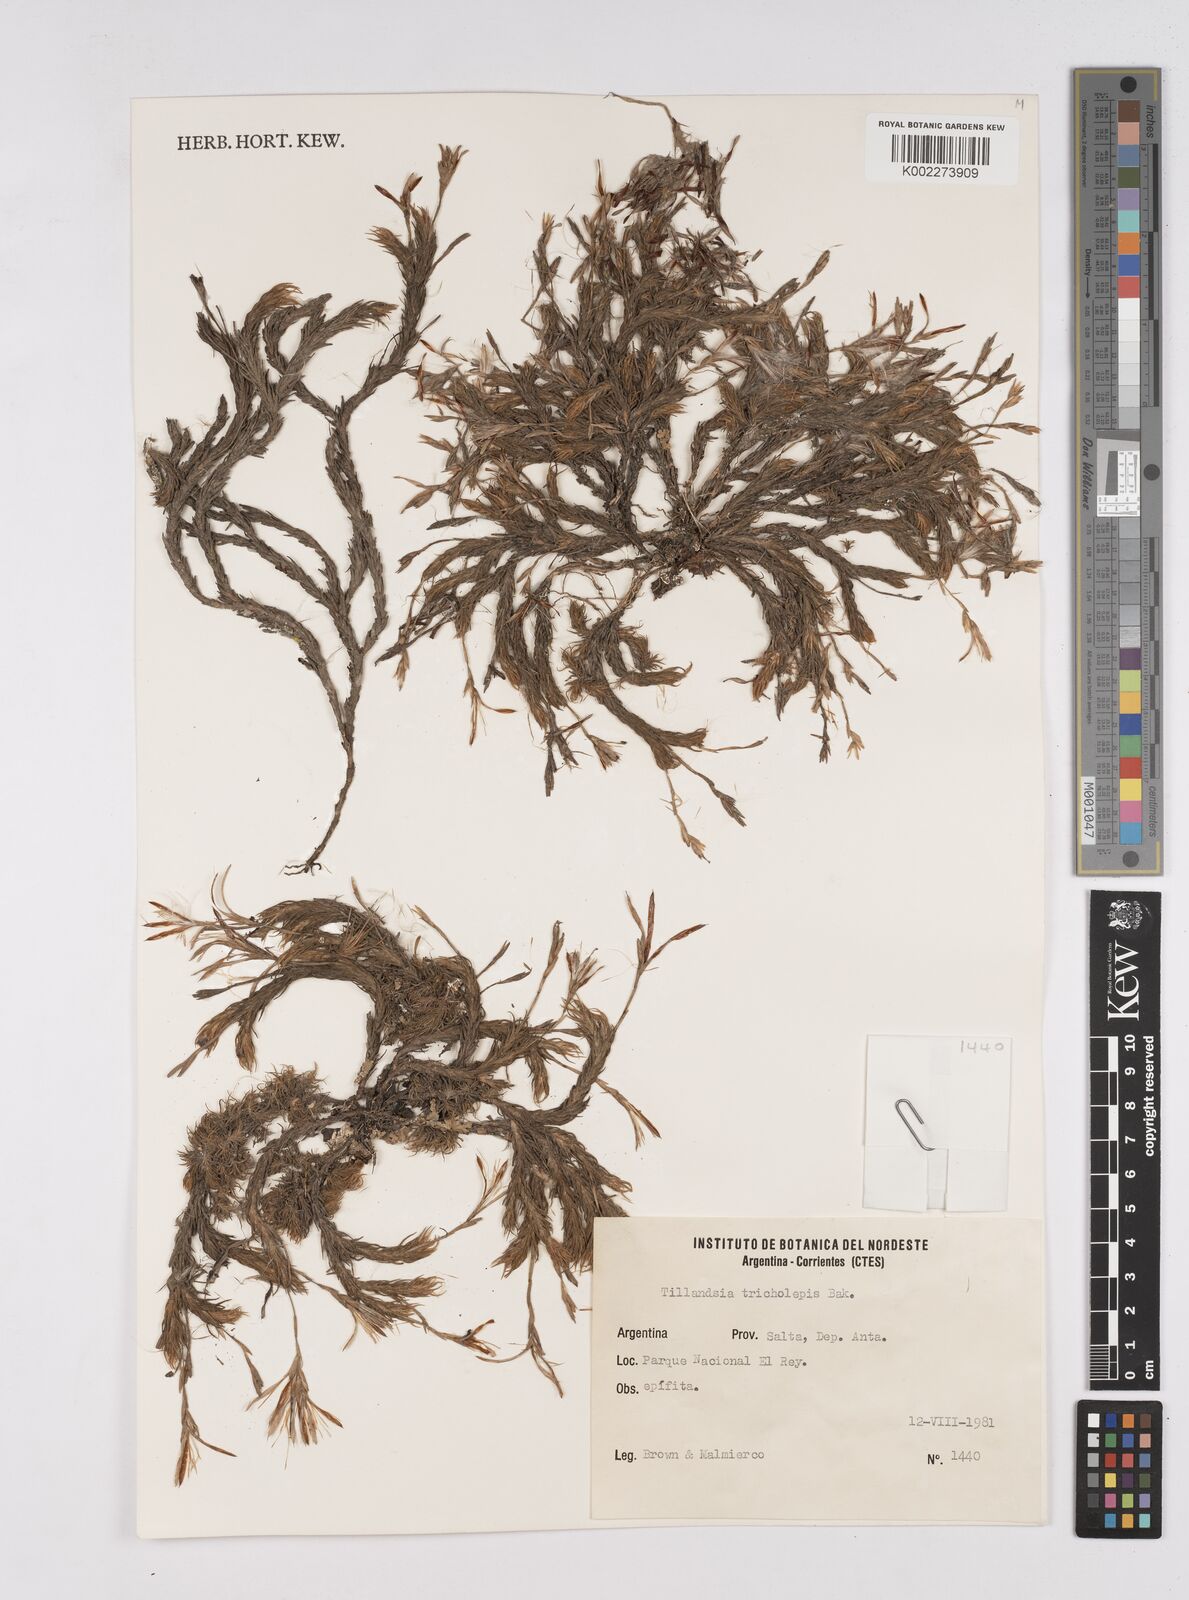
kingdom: Plantae
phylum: Tracheophyta
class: Liliopsida
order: Poales
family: Bromeliaceae
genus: Tillandsia
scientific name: Tillandsia tricholepis
